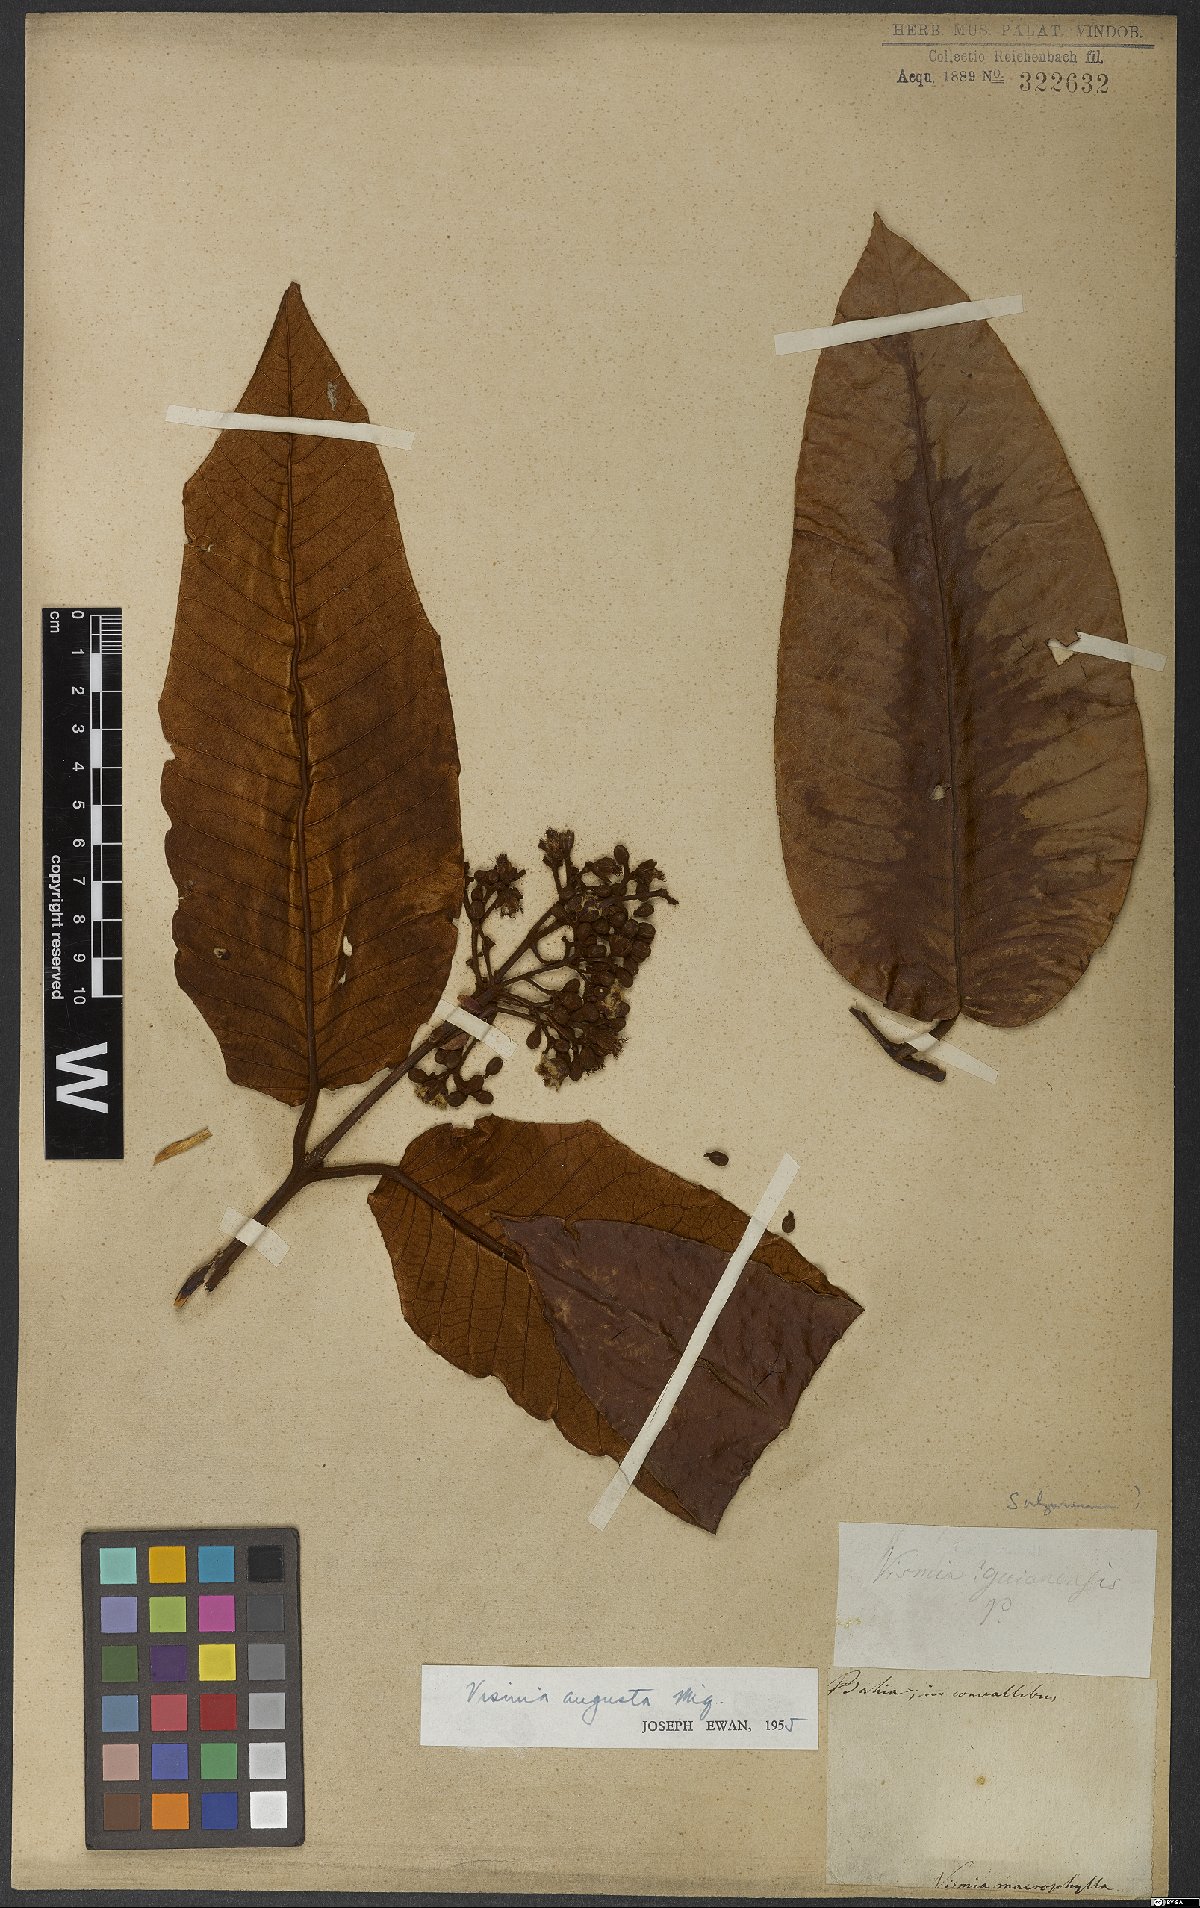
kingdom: Plantae
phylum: Tracheophyta
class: Magnoliopsida
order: Malpighiales
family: Hypericaceae
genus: Vismia
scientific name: Vismia macrophylla
